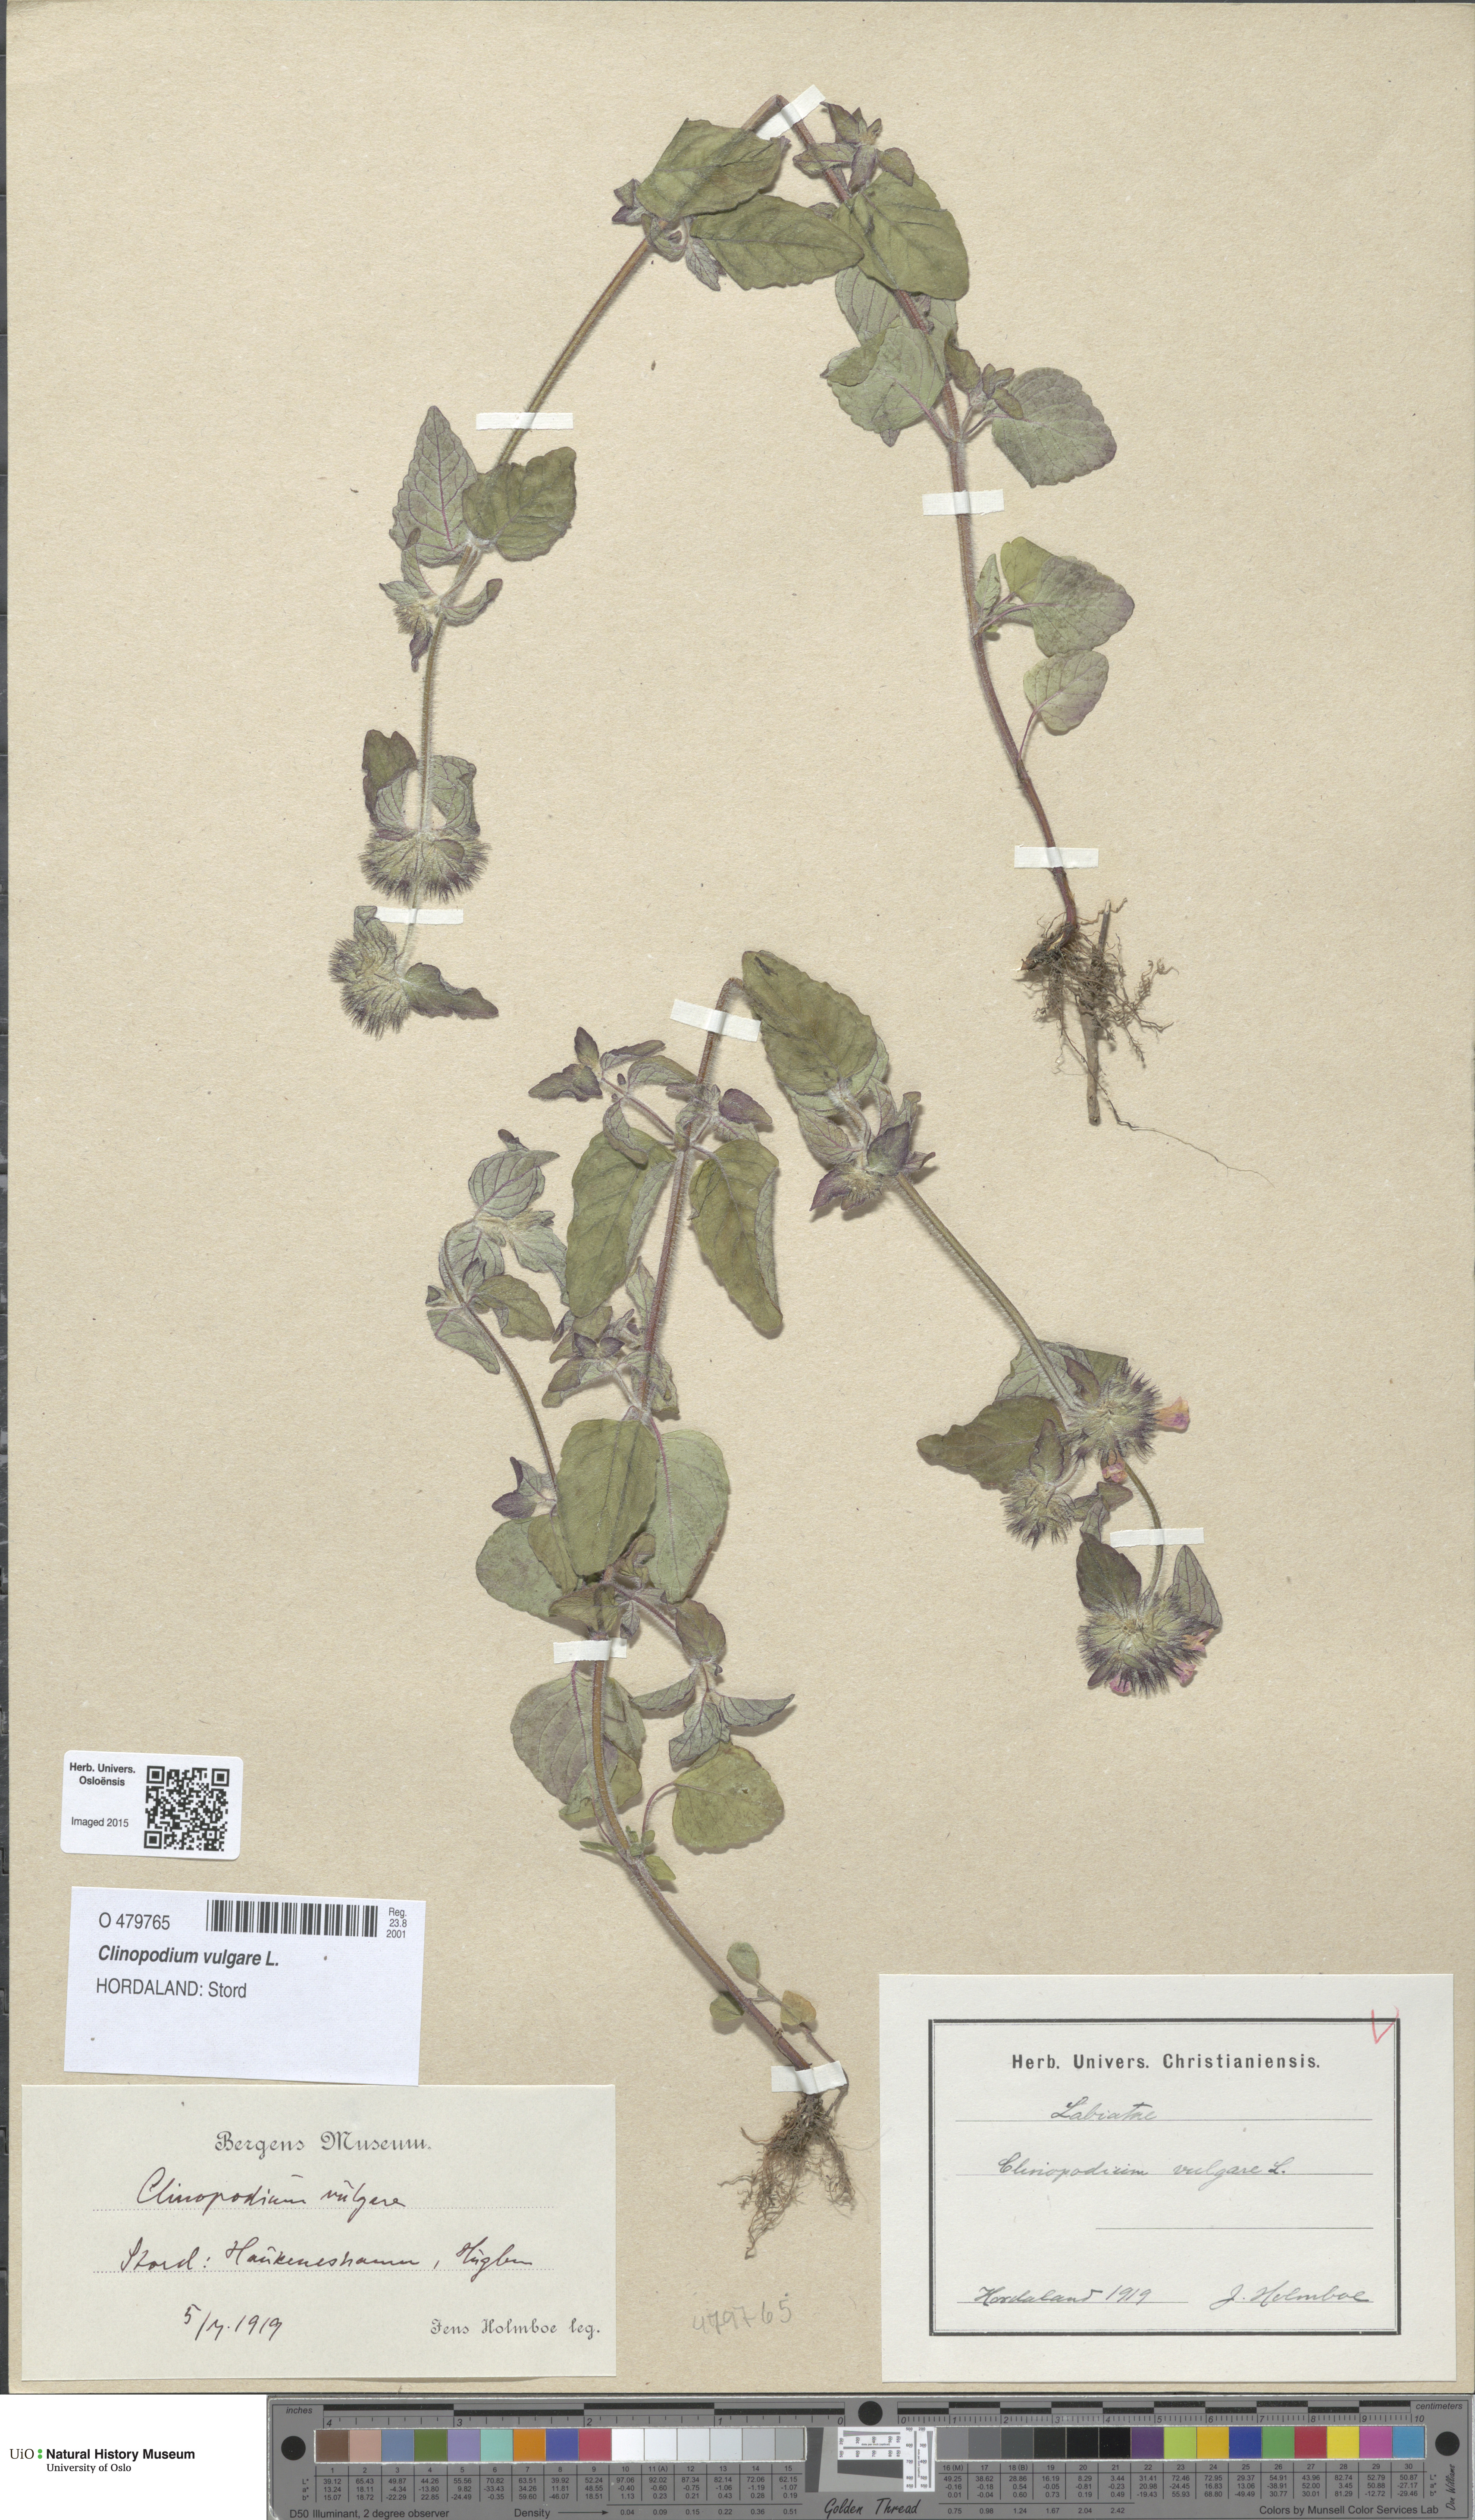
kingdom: Plantae
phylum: Tracheophyta
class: Magnoliopsida
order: Lamiales
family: Lamiaceae
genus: Clinopodium
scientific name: Clinopodium vulgare
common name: Wild basil
